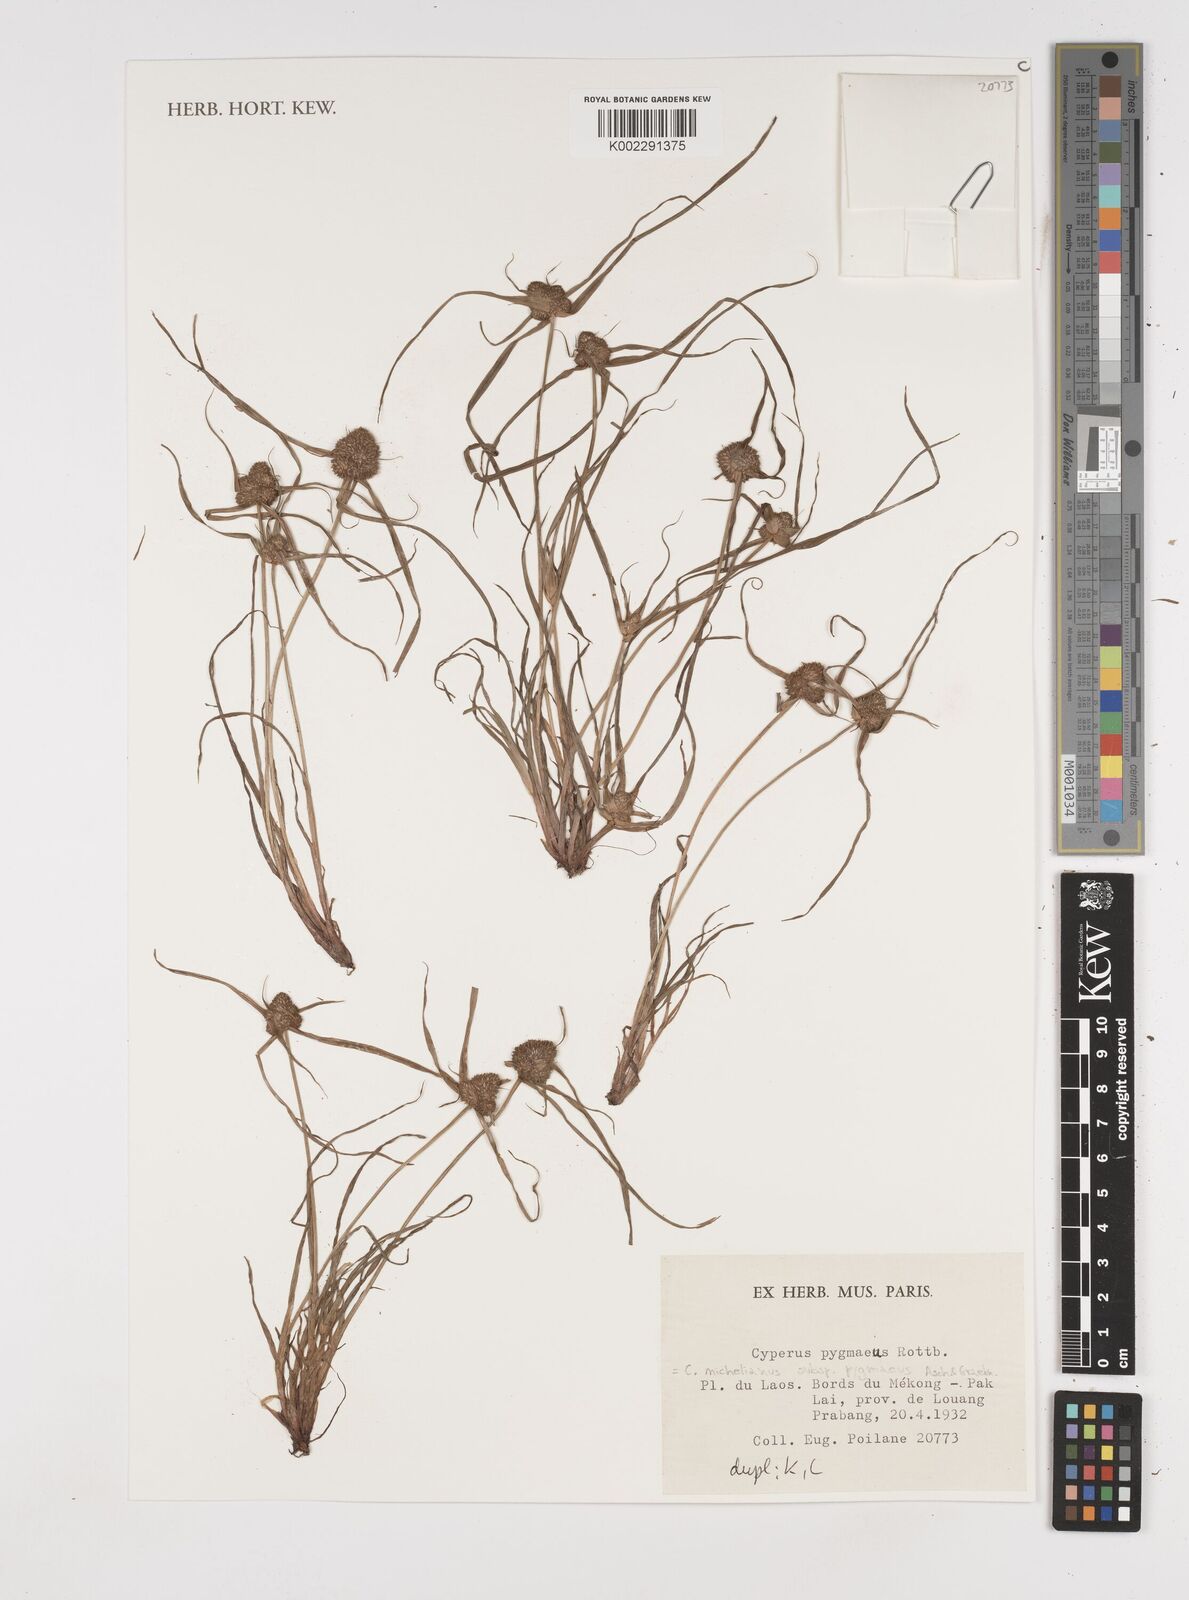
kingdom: Plantae
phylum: Tracheophyta
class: Liliopsida
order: Poales
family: Cyperaceae
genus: Cyperus
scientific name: Cyperus michelianus
